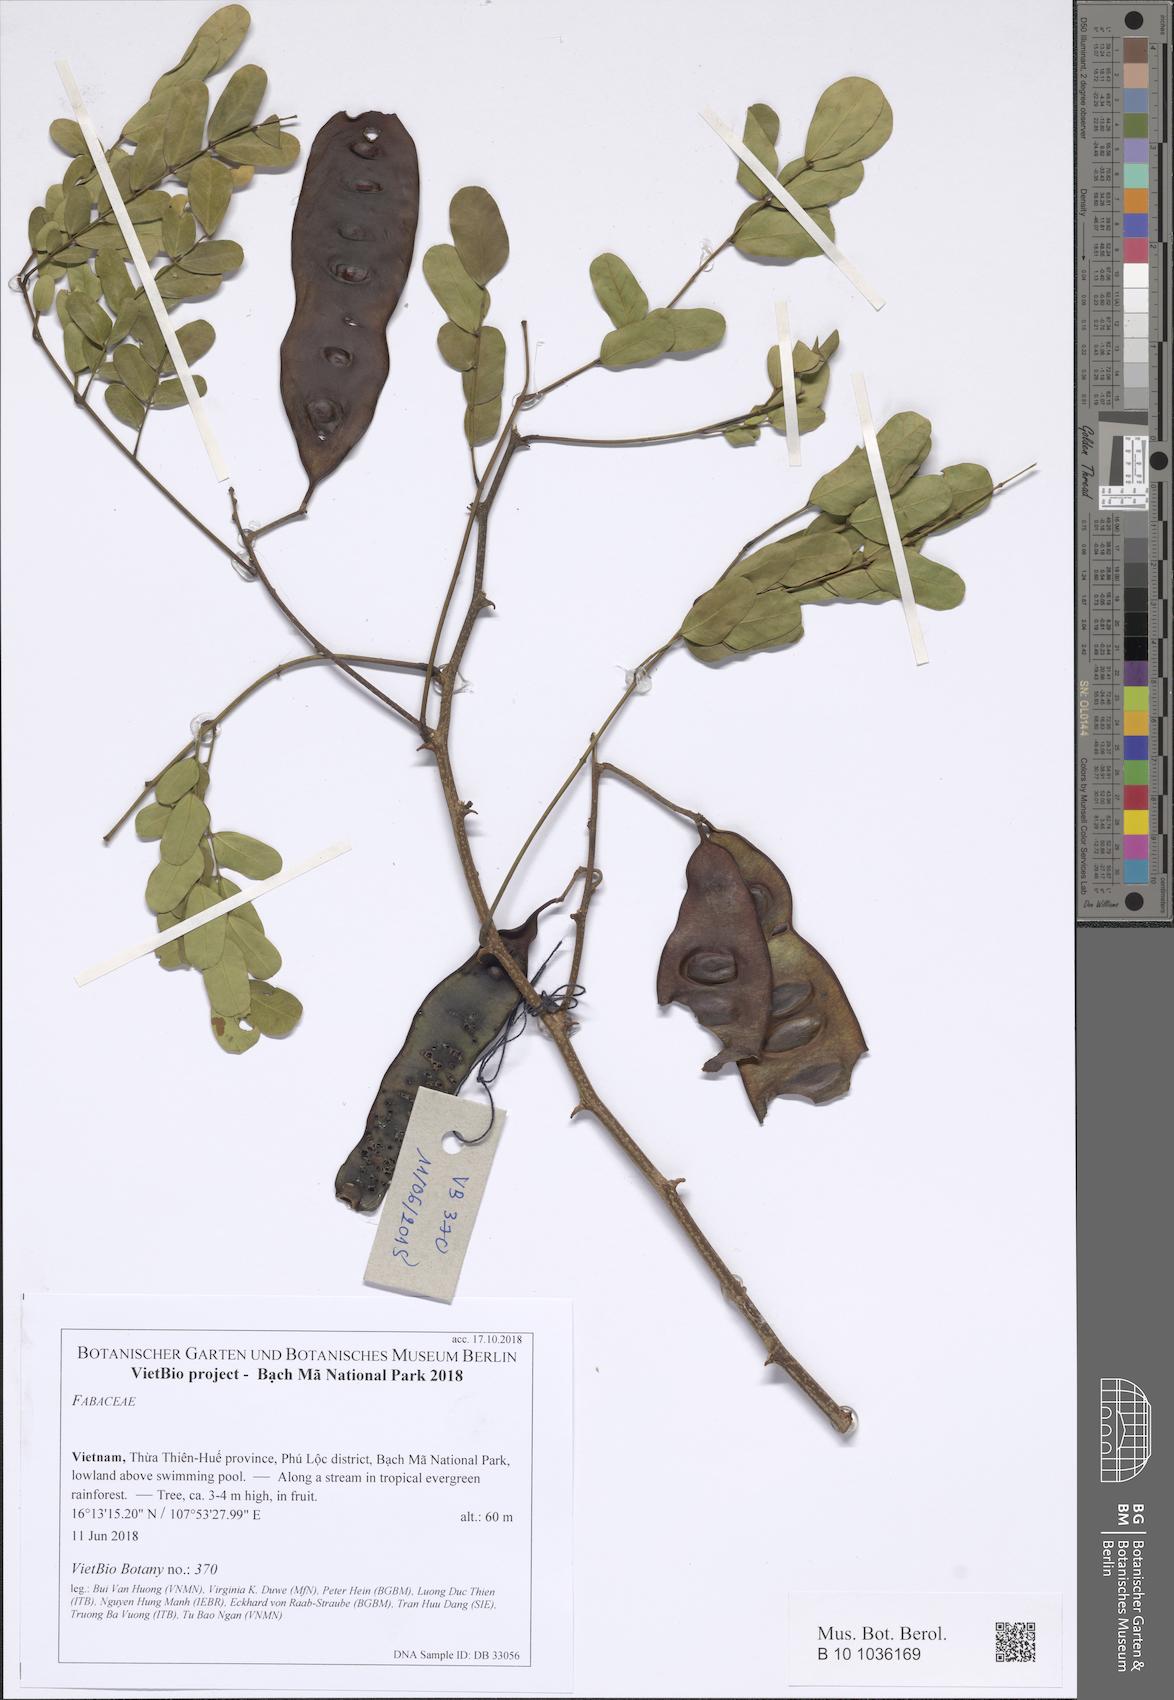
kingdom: Plantae
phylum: Tracheophyta
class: Magnoliopsida
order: Fabales
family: Fabaceae
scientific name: Fabaceae
